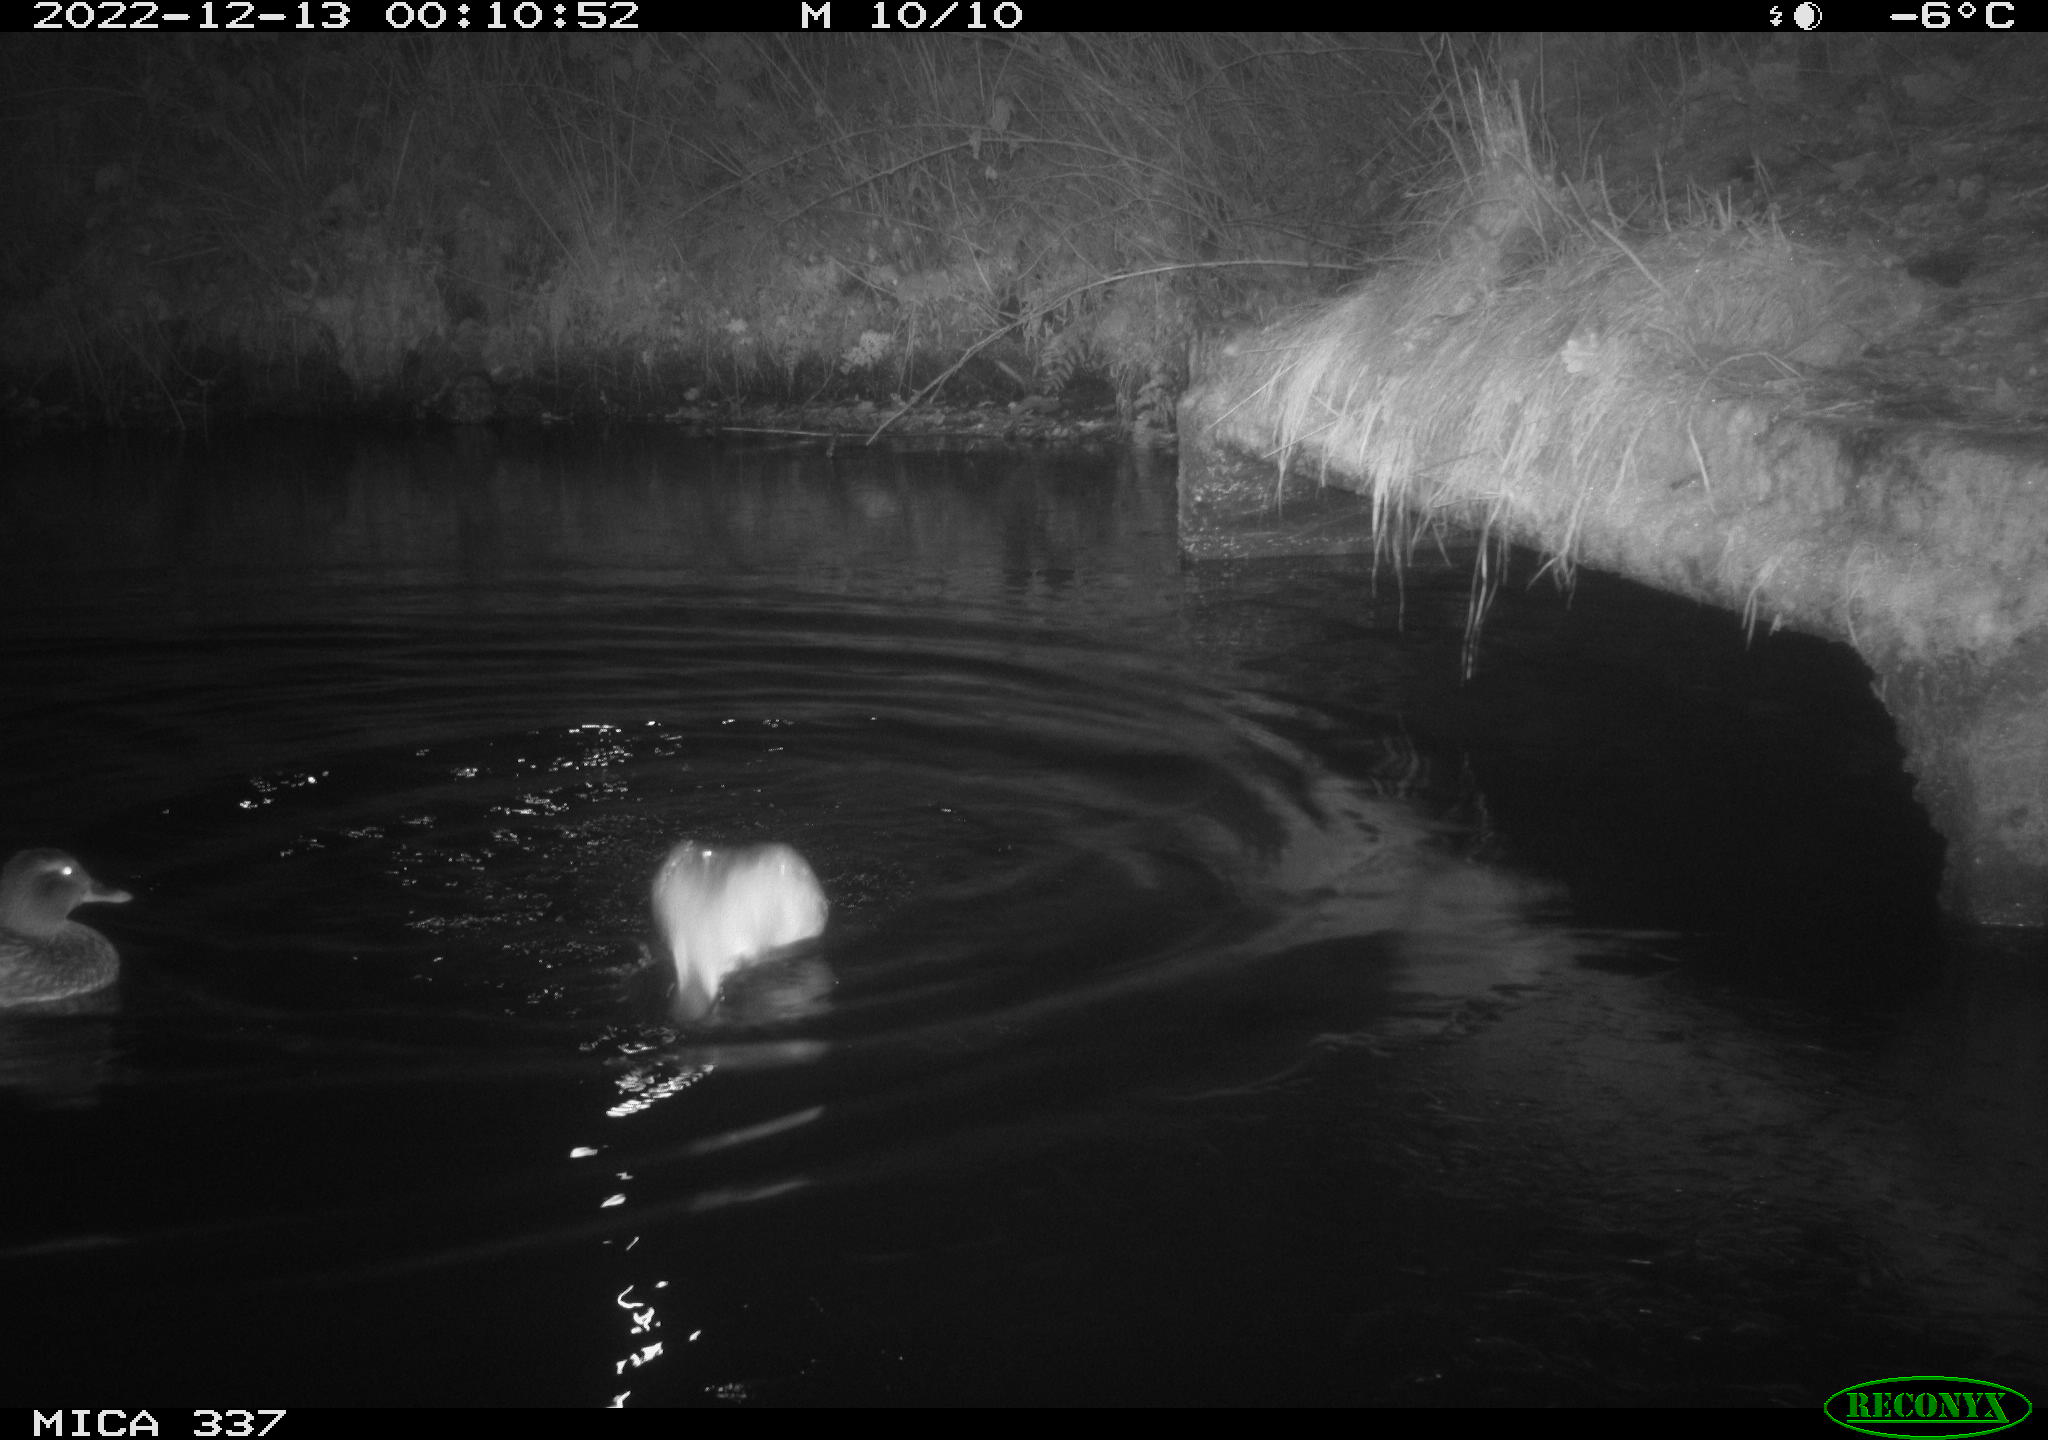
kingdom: Animalia
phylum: Chordata
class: Aves
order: Anseriformes
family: Anatidae
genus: Anas
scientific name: Anas
